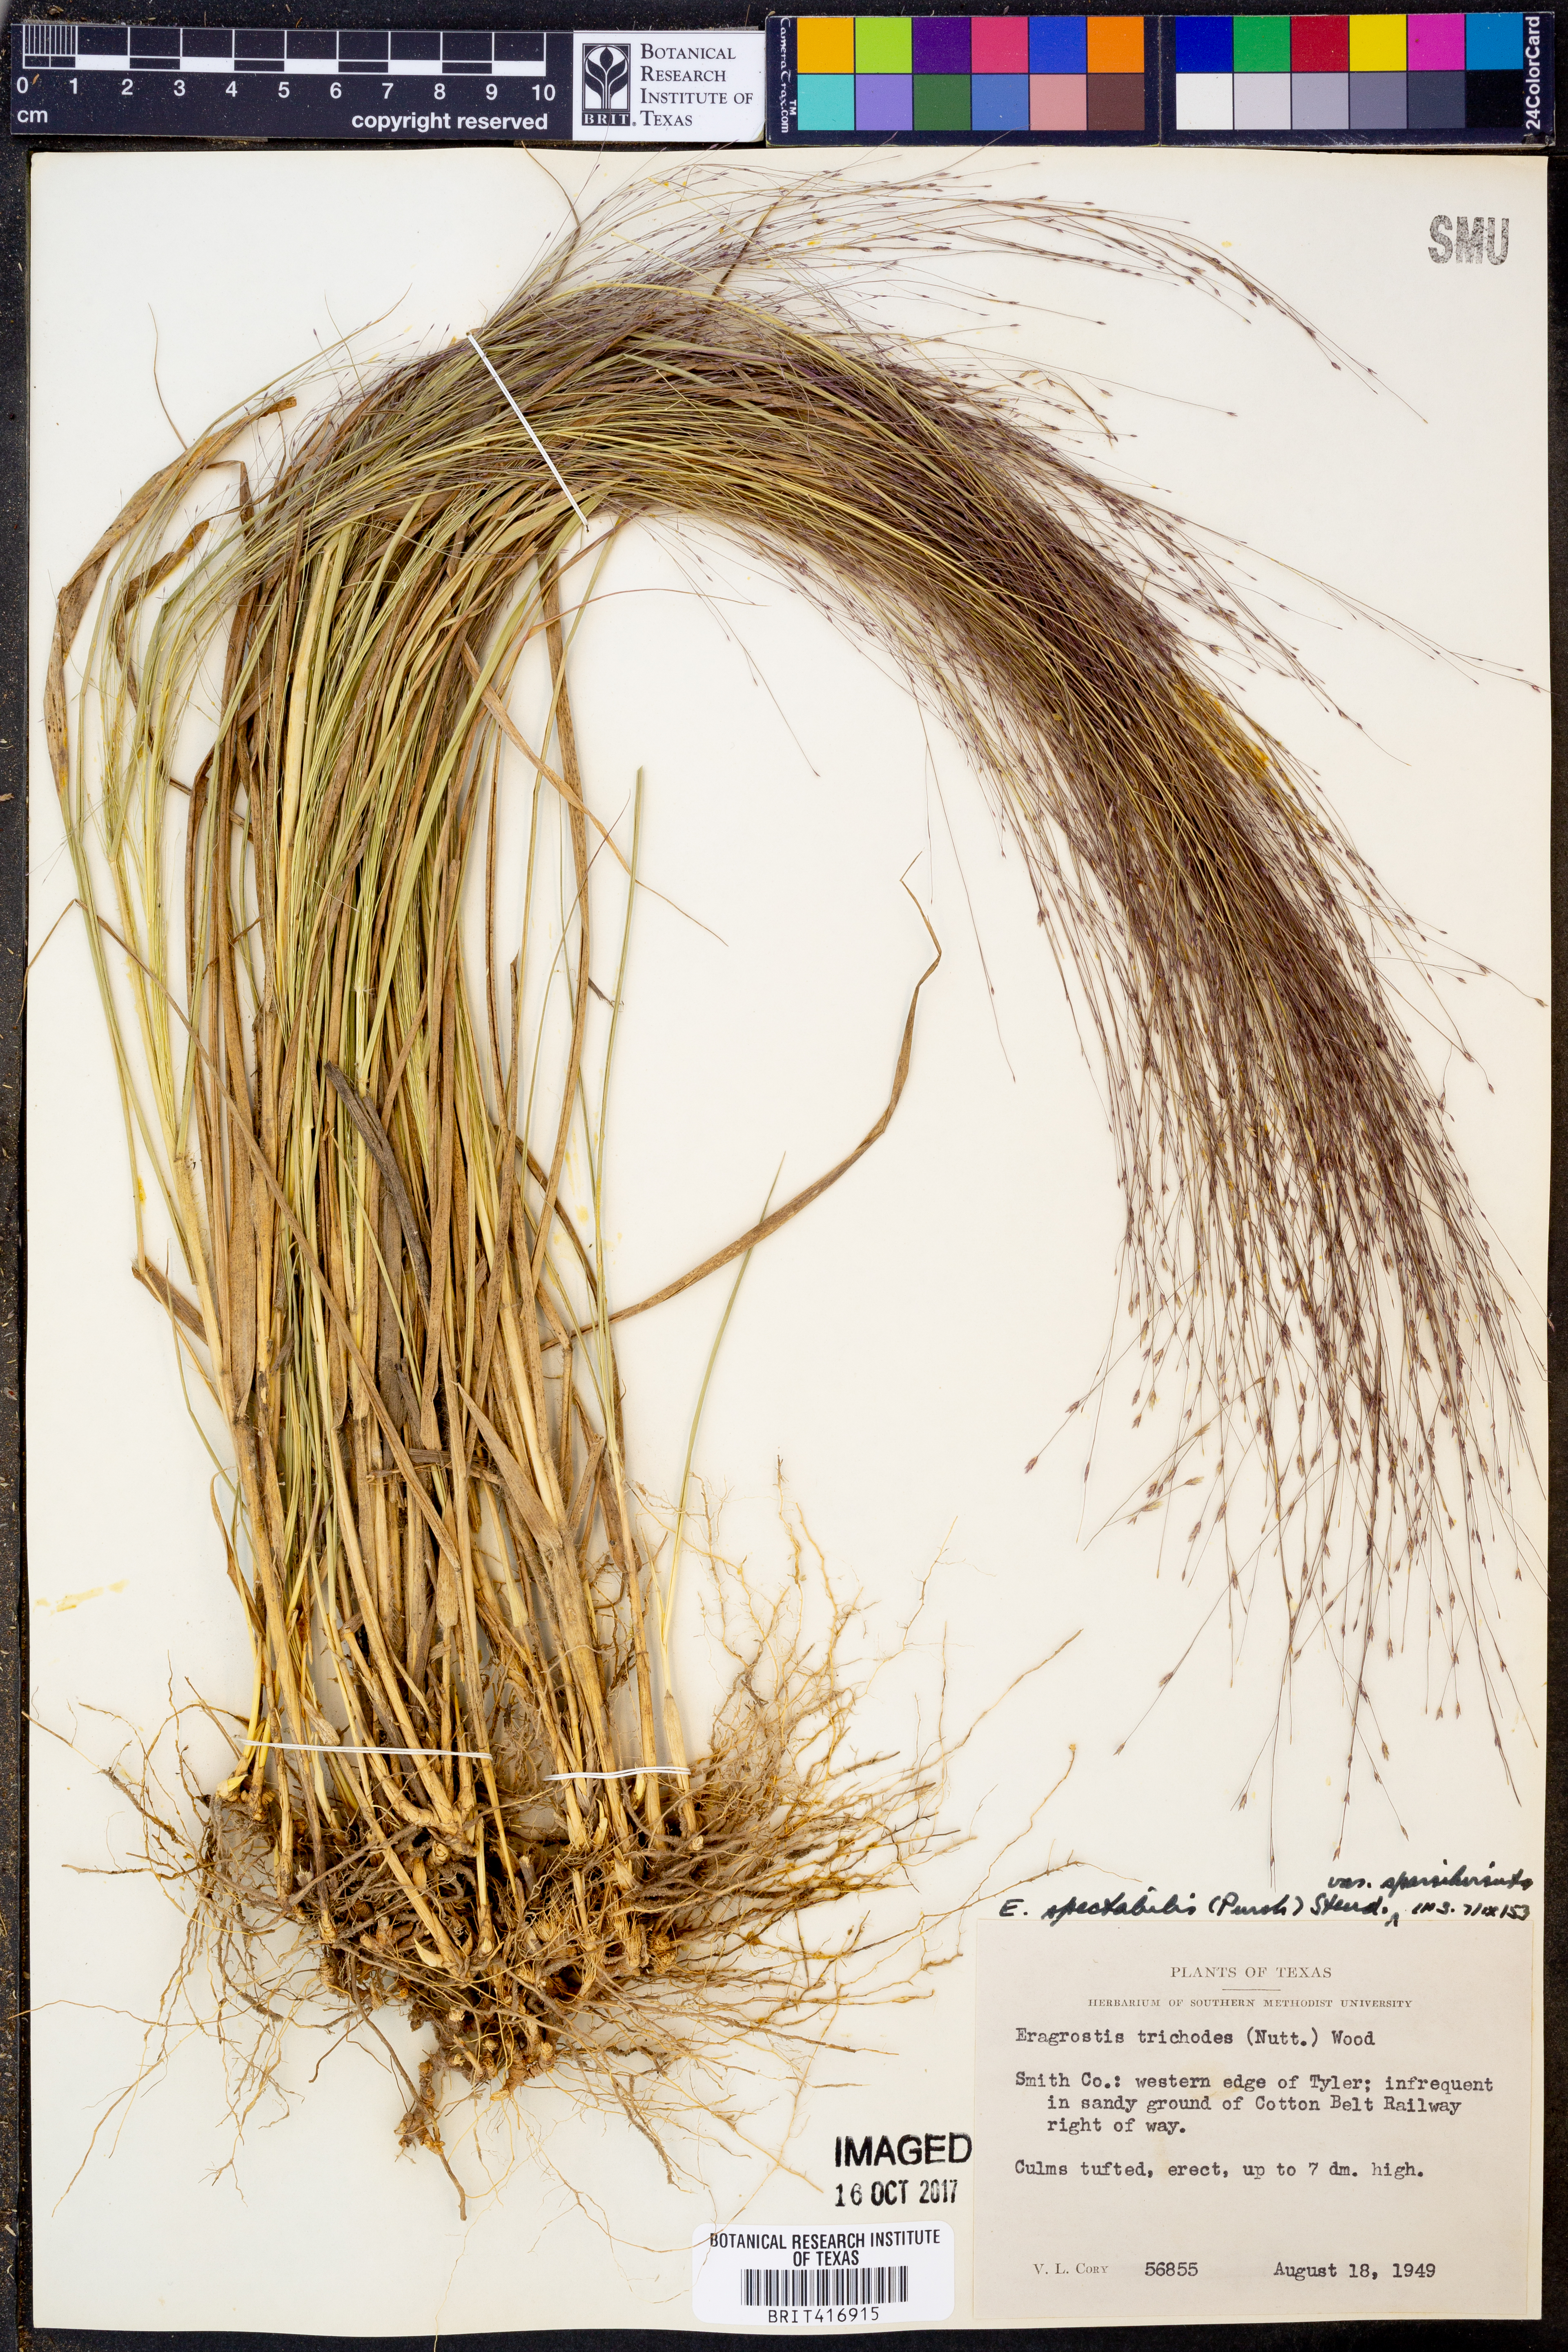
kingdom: Plantae
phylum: Tracheophyta
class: Liliopsida
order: Poales
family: Poaceae
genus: Eragrostis
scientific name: Eragrostis spectabilis
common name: Petticoat-climber
